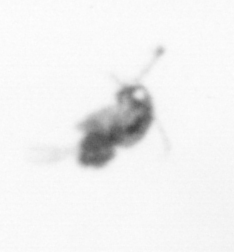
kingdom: Animalia
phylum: Arthropoda
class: Copepoda
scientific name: Copepoda
